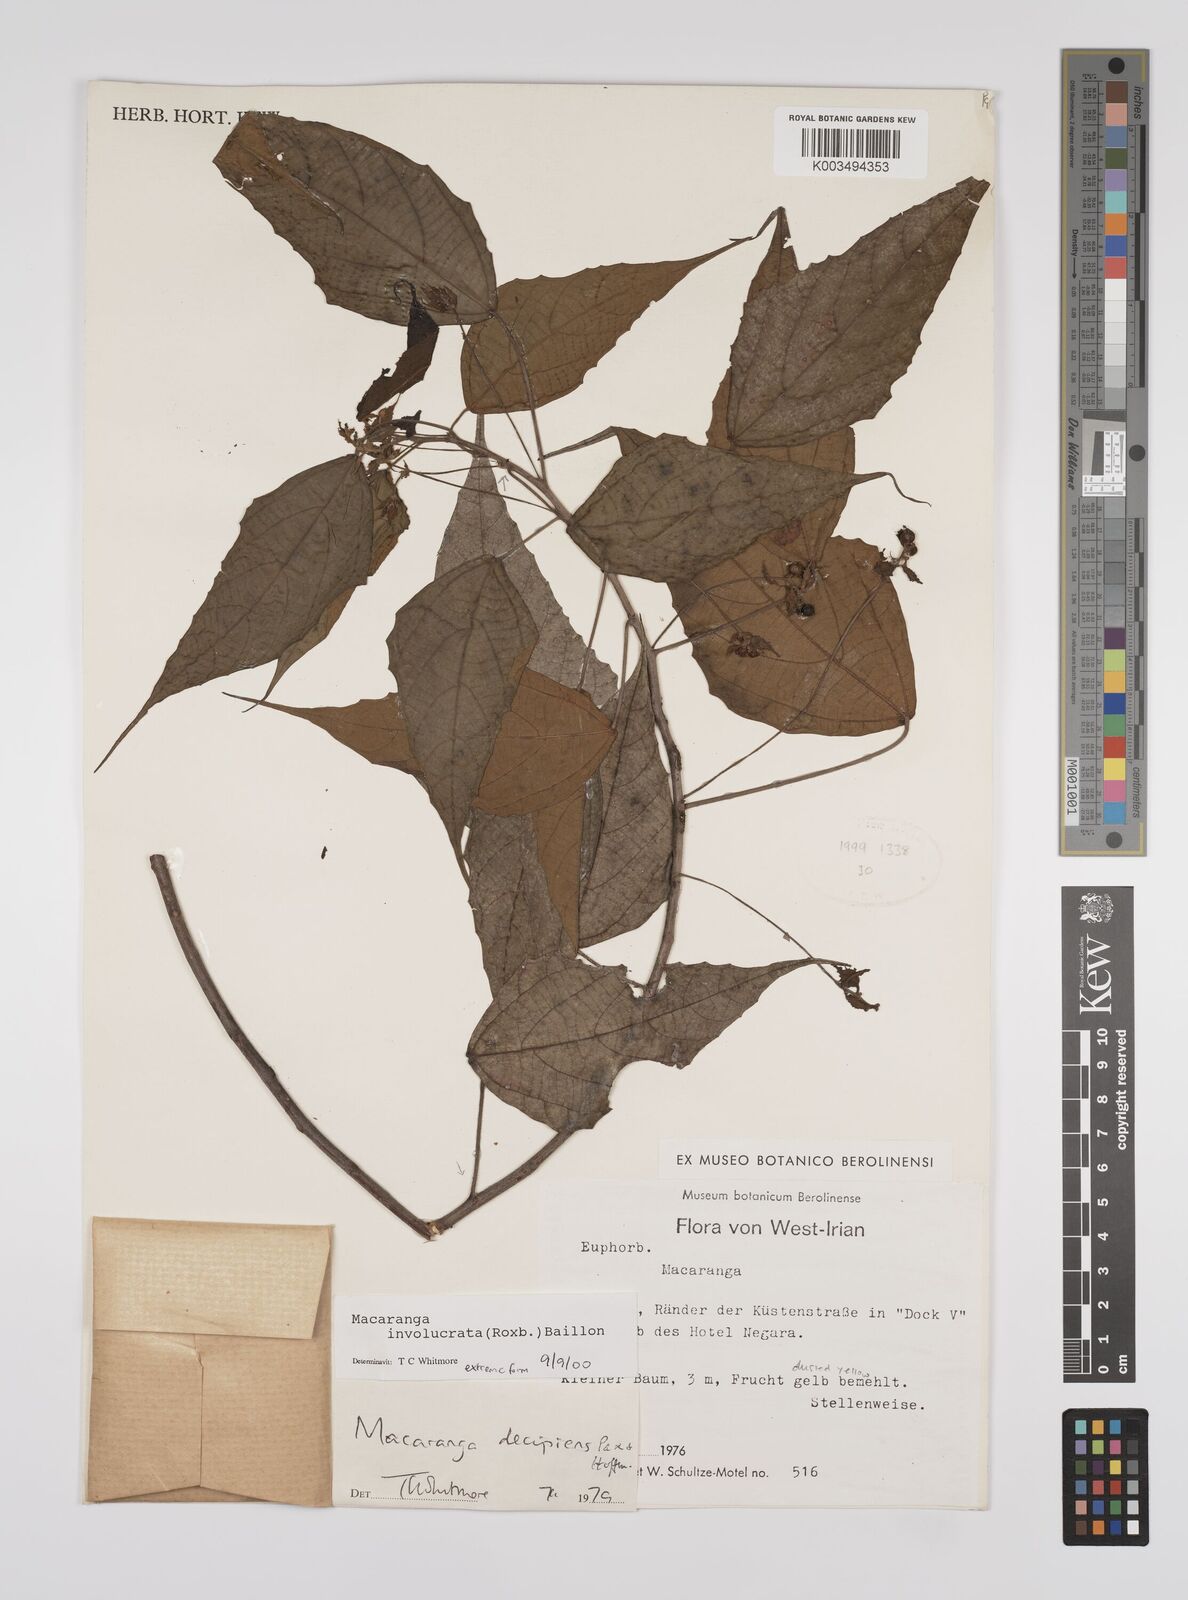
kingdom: Plantae
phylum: Tracheophyta
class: Magnoliopsida
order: Malpighiales
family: Euphorbiaceae
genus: Macaranga
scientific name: Macaranga involucrata
